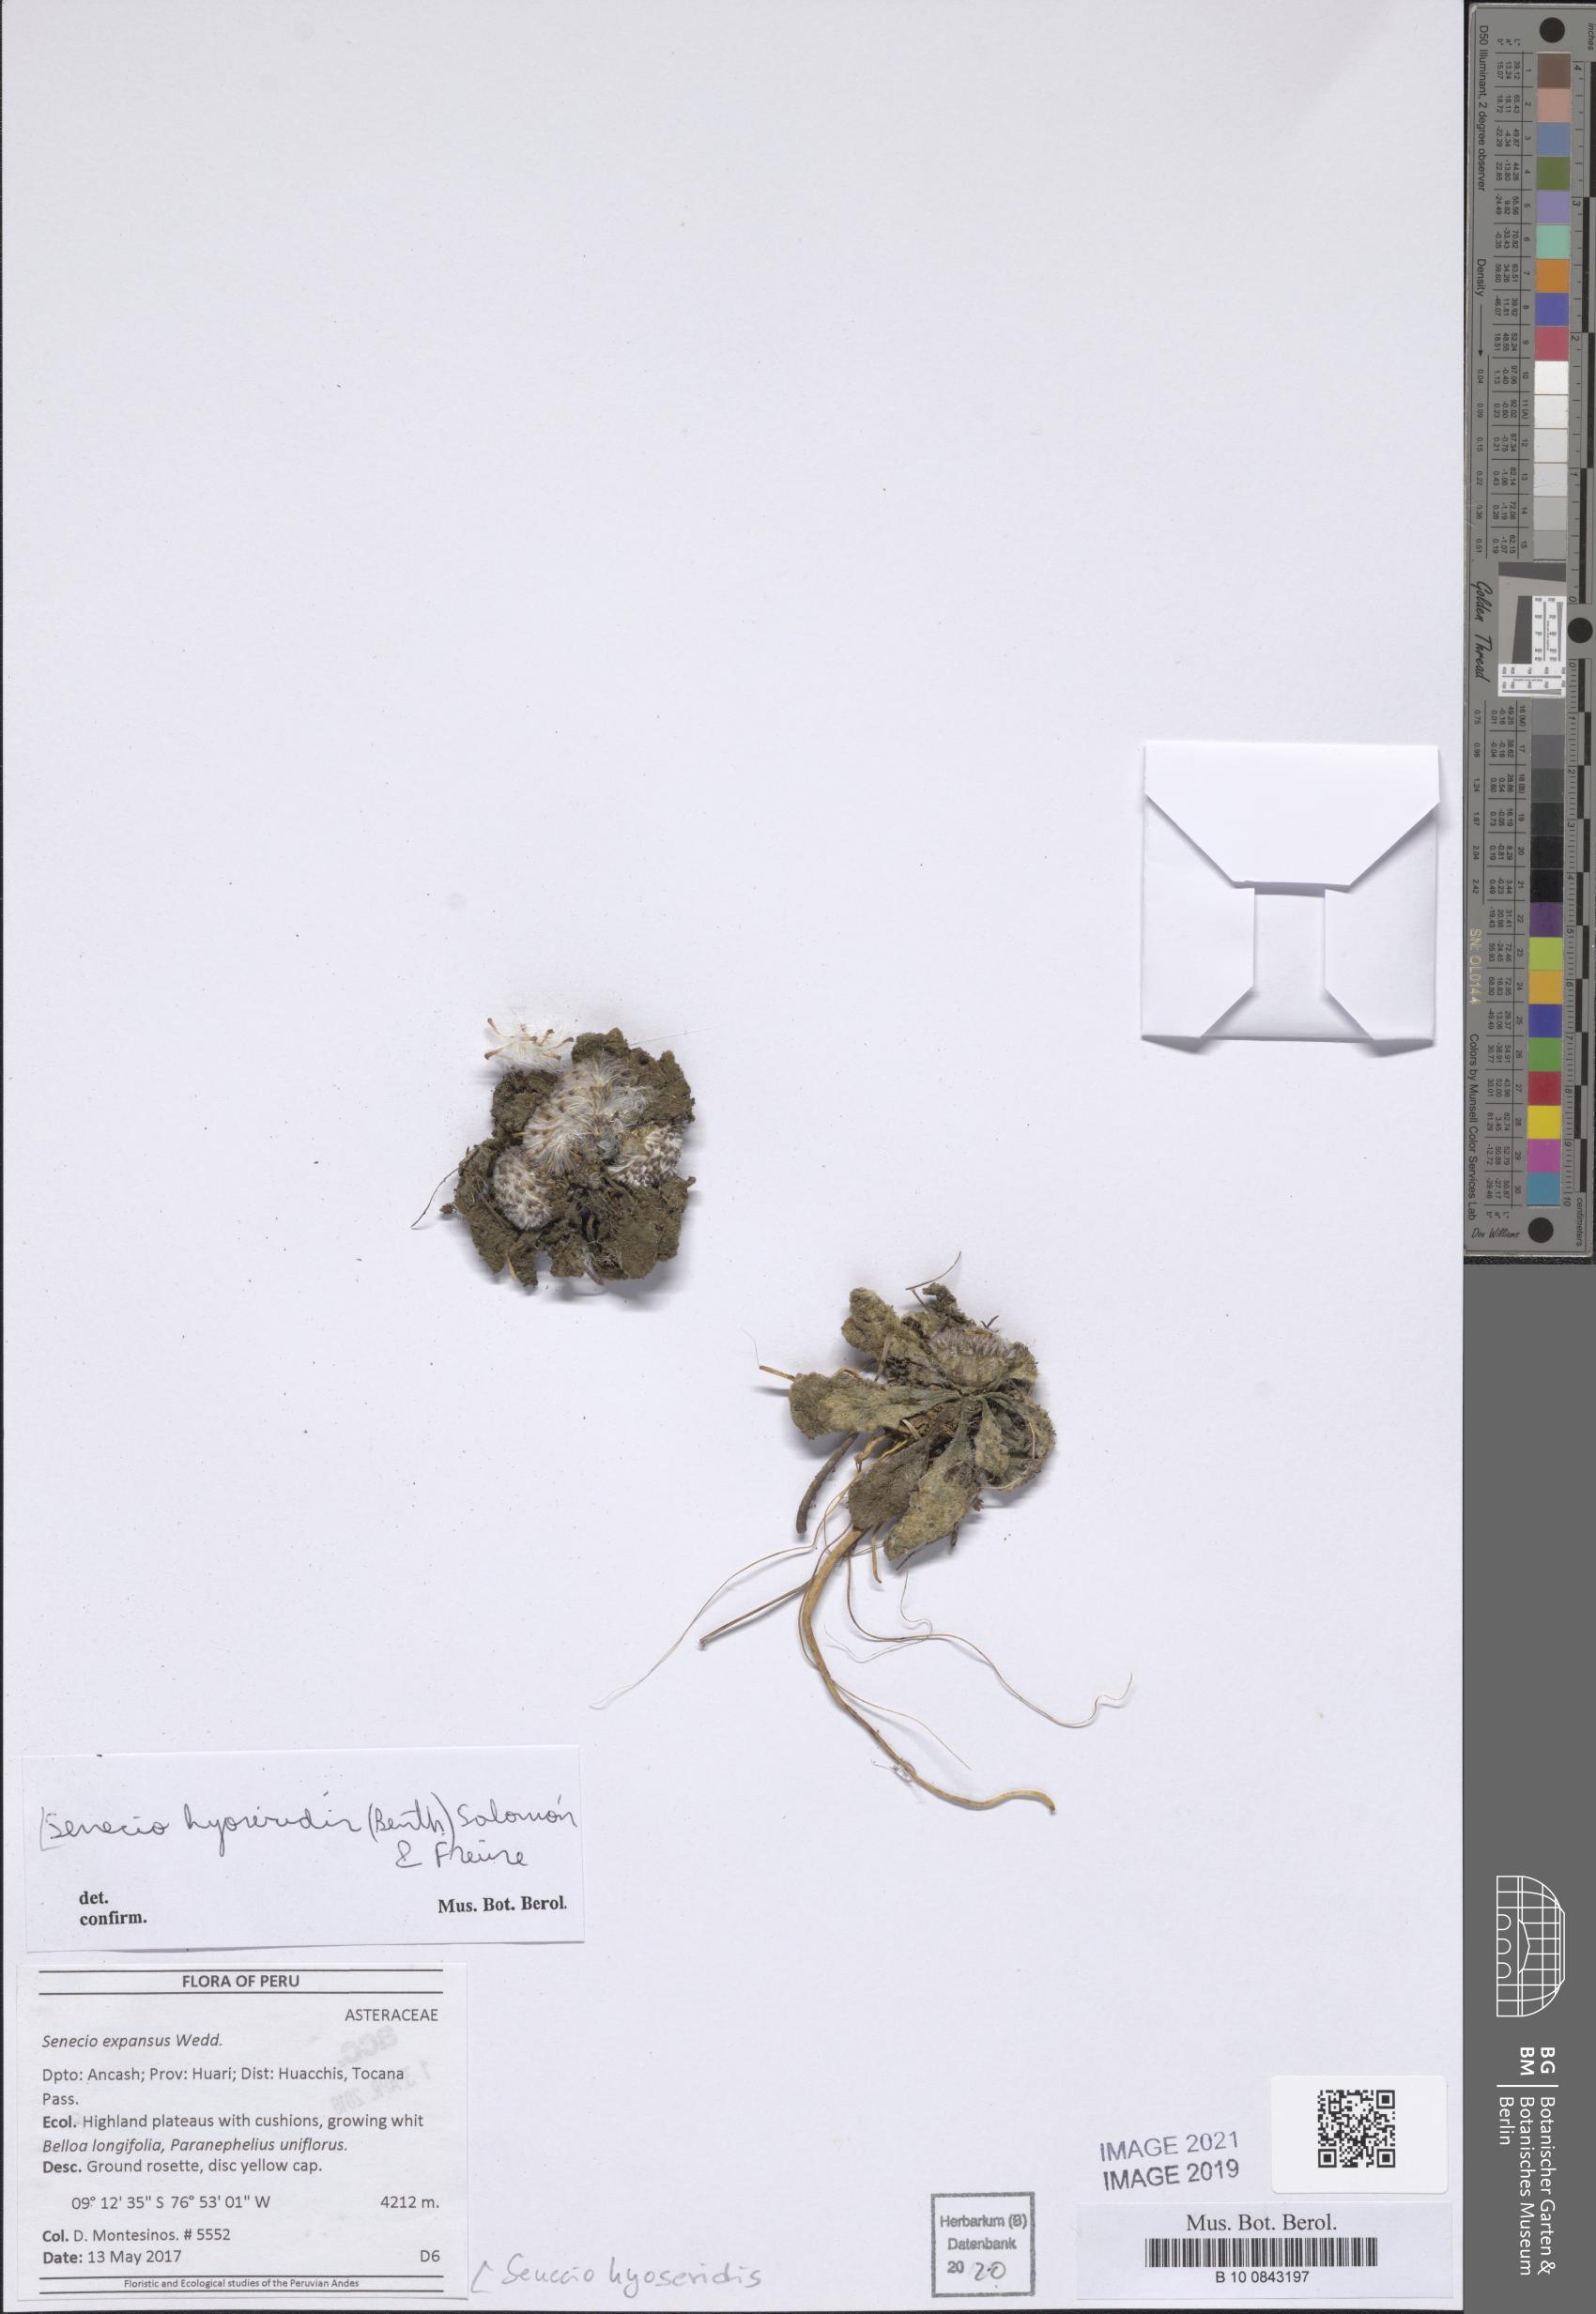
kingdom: Plantae
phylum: Tracheophyta
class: Magnoliopsida
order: Asterales
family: Asteraceae
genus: Senecio
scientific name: Senecio hyoseridis
